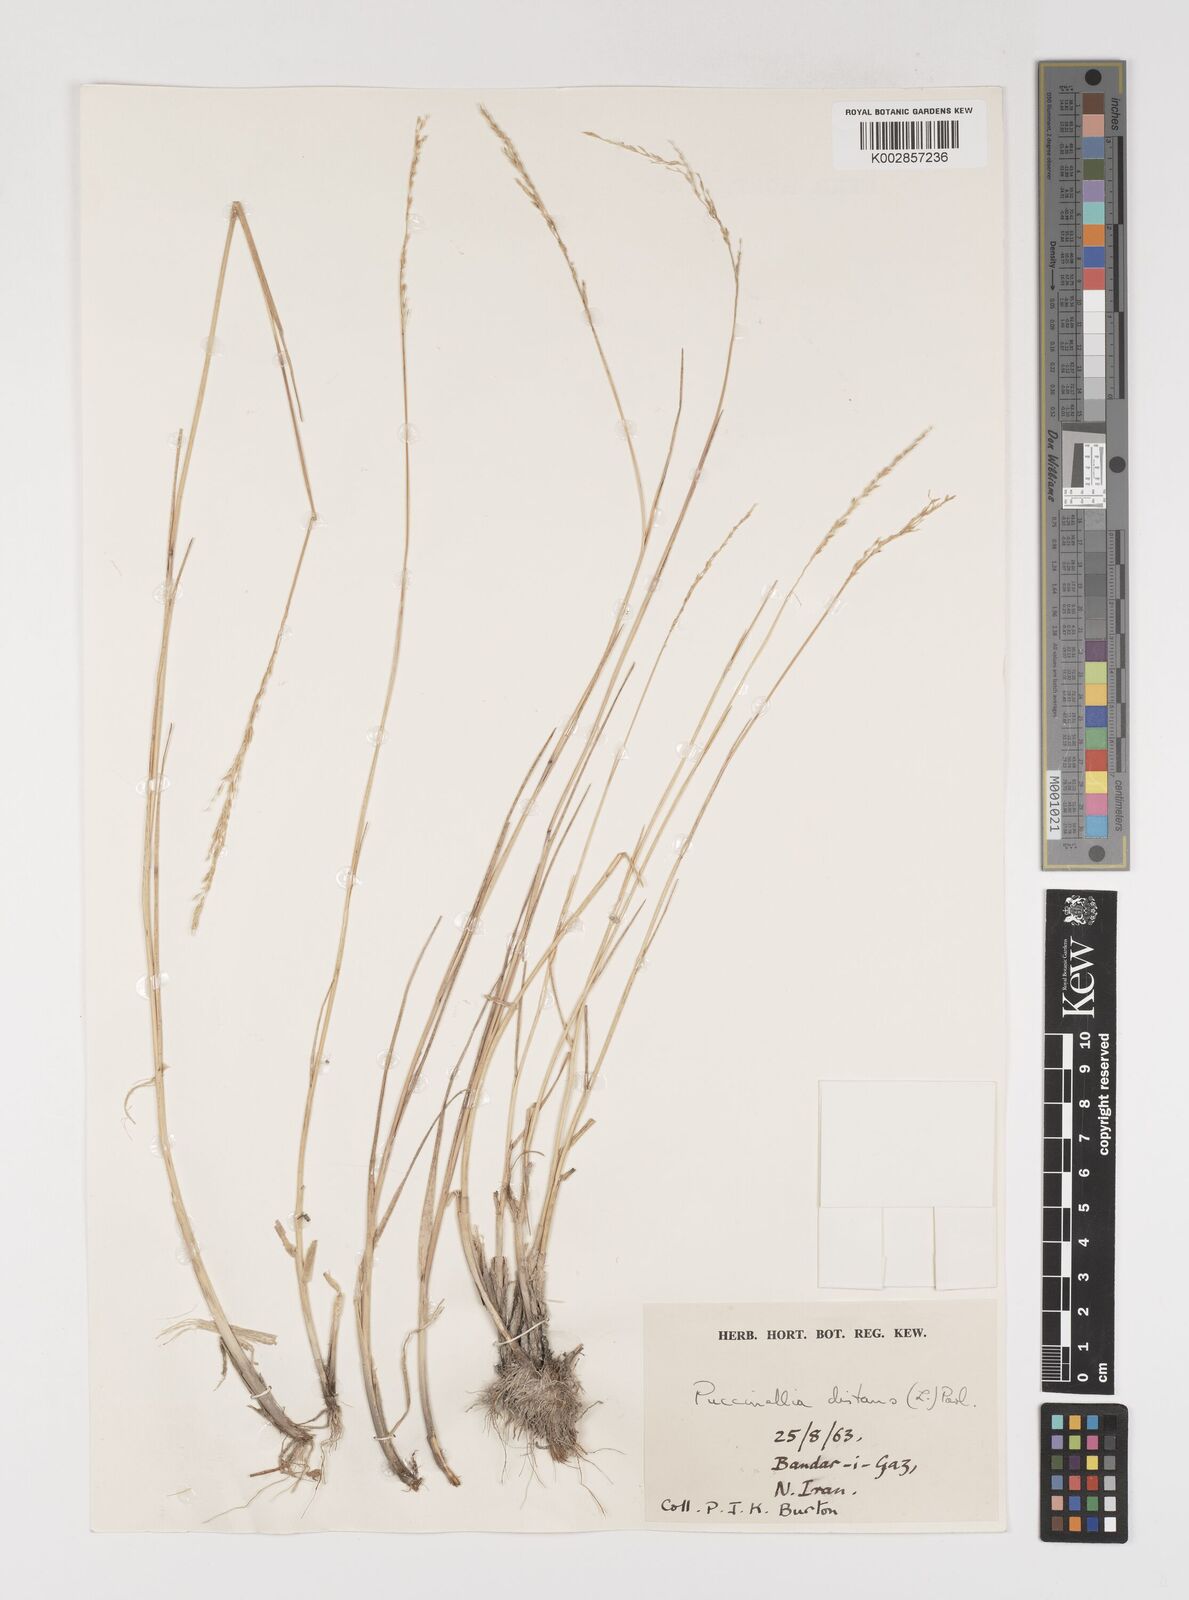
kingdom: Plantae
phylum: Tracheophyta
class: Liliopsida
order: Poales
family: Poaceae
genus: Puccinellia
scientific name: Puccinellia distans
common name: Weeping alkaligrass
